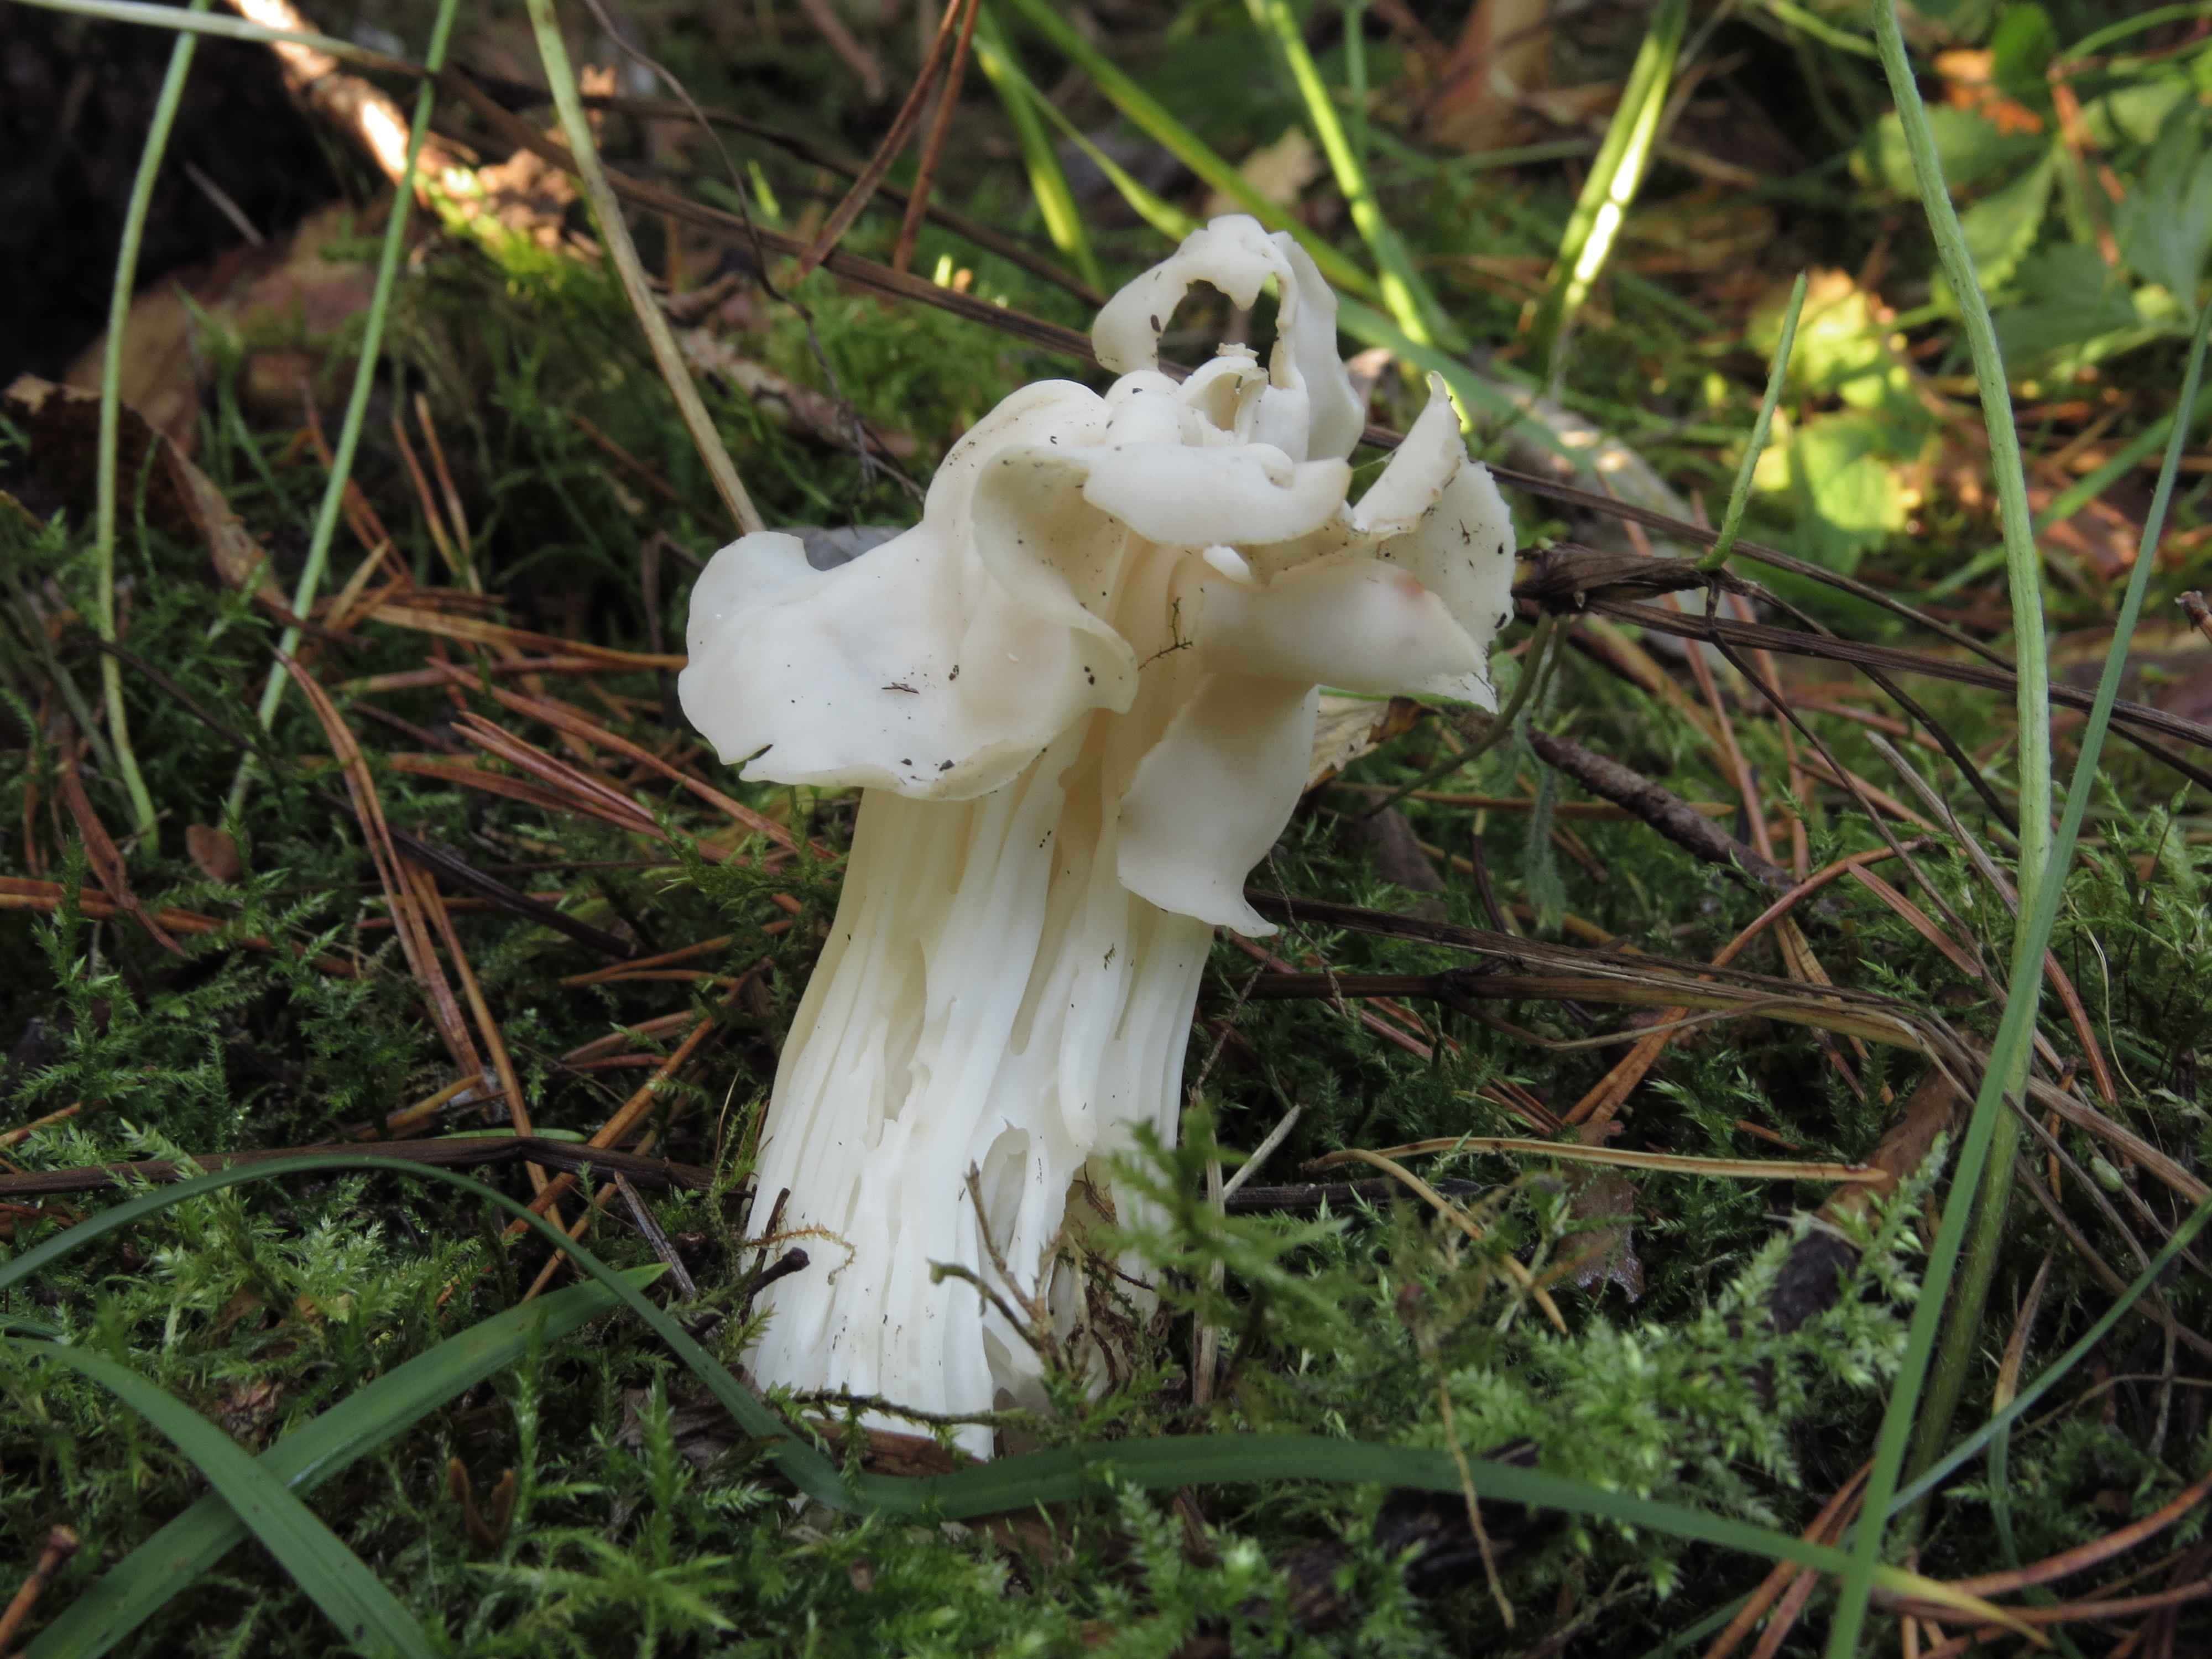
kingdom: Fungi
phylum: Ascomycota
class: Pezizomycetes
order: Pezizales
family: Helvellaceae
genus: Helvella
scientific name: Helvella crispa
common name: White saddle
